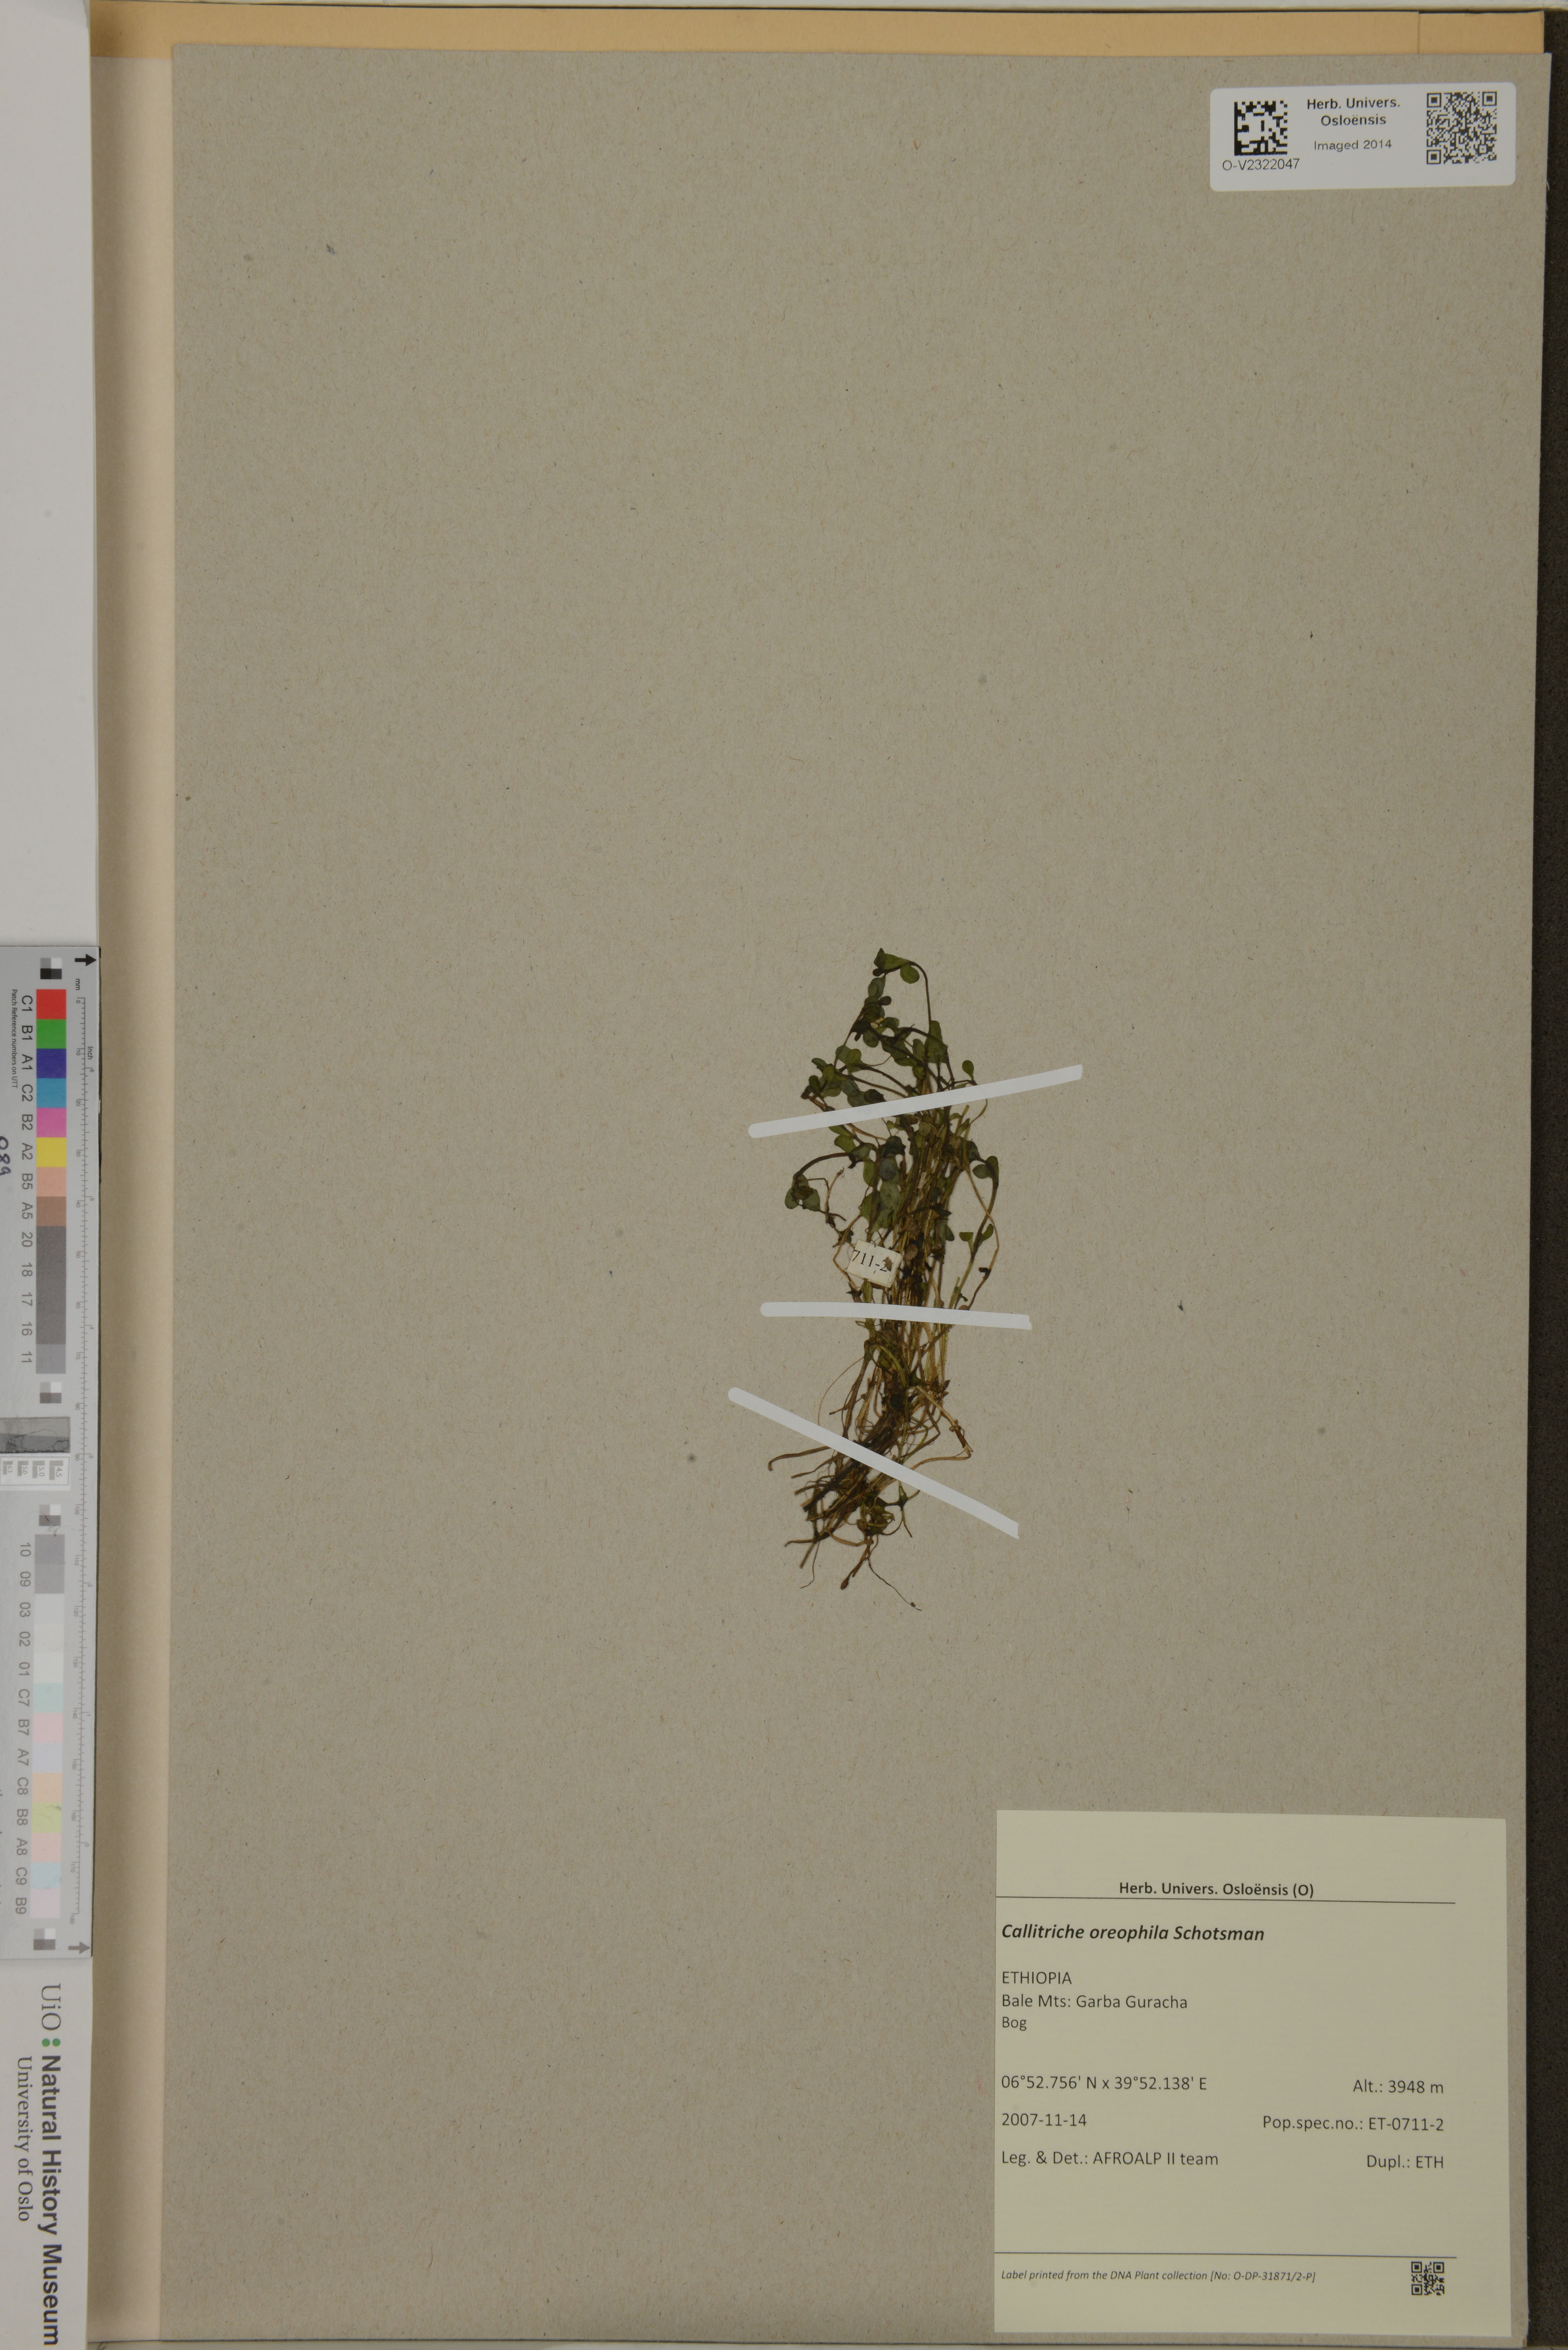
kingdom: Plantae
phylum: Tracheophyta
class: Magnoliopsida
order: Lamiales
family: Plantaginaceae
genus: Callitriche
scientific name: Callitriche oreophila
